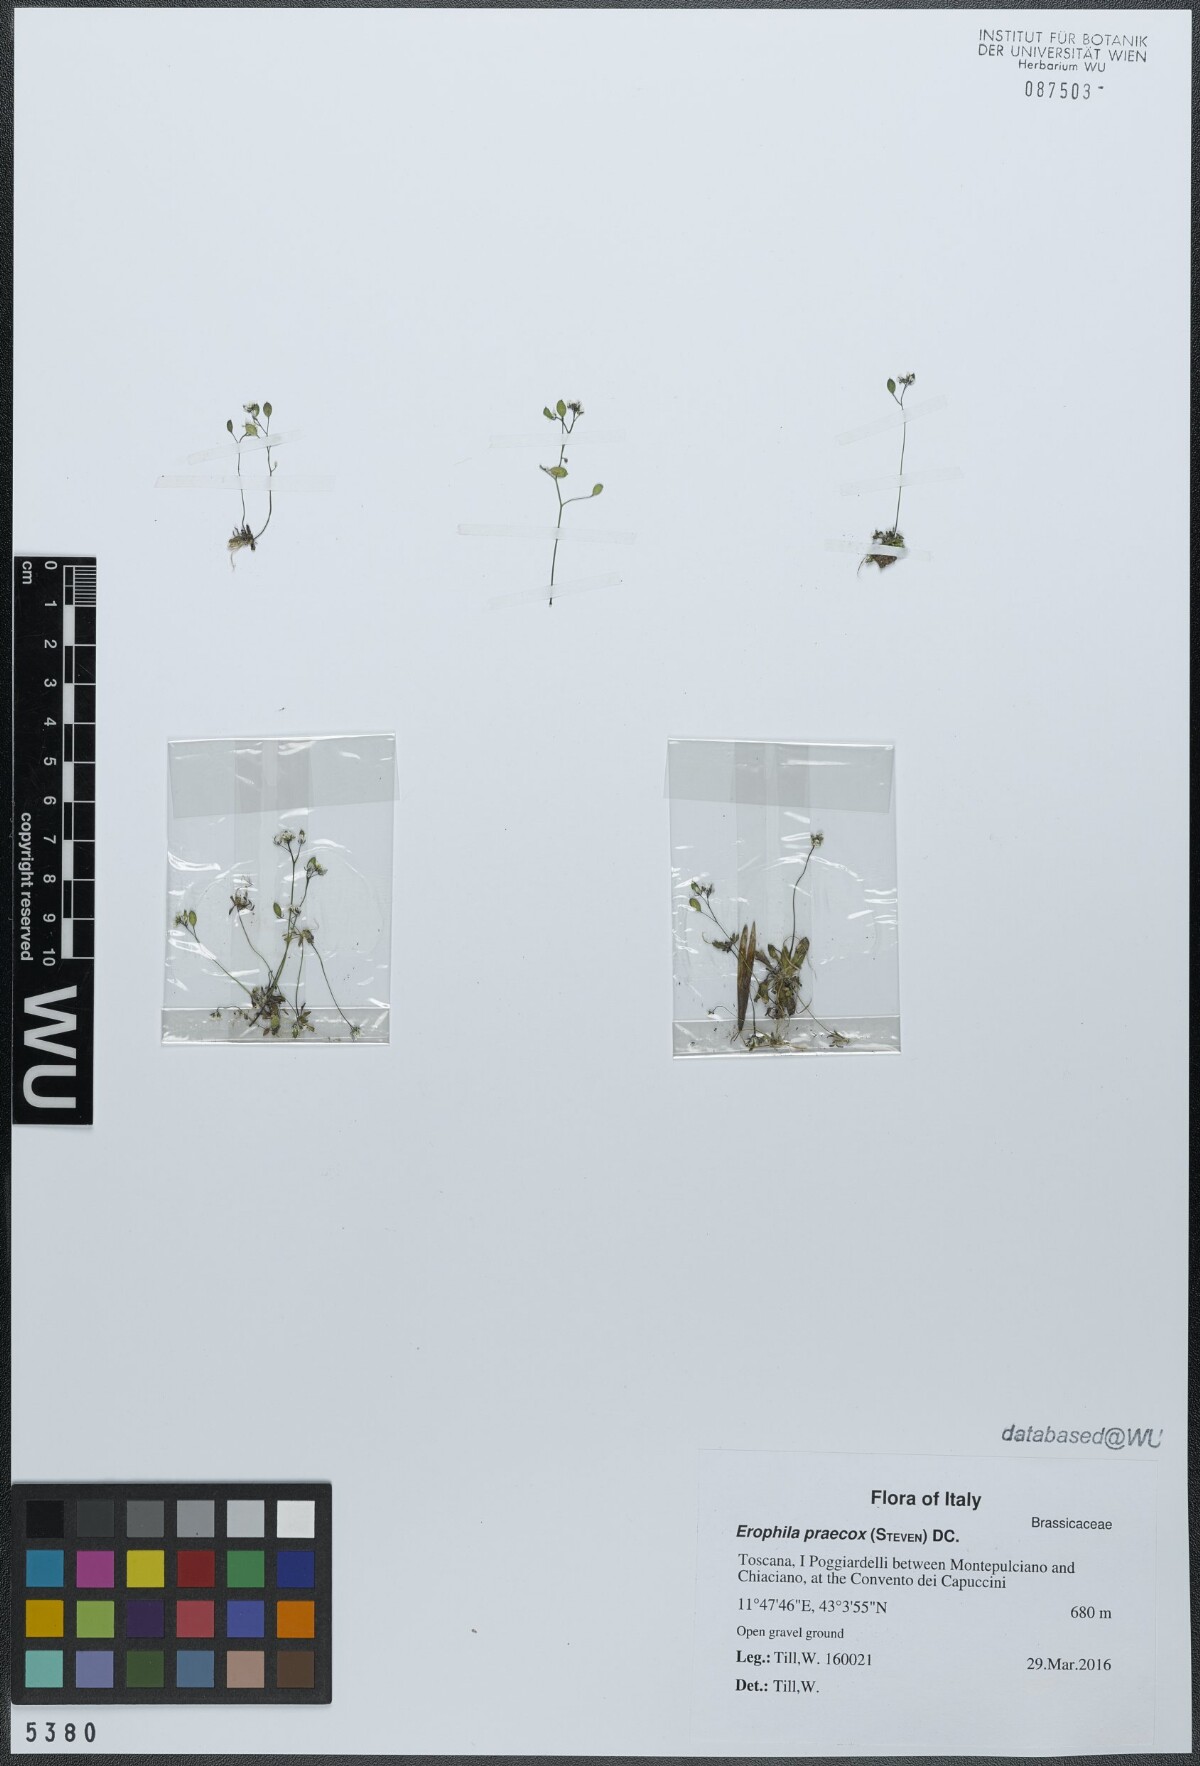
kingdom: Plantae
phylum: Tracheophyta
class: Magnoliopsida
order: Brassicales
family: Brassicaceae
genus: Draba
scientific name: Draba verna
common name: Spring draba
